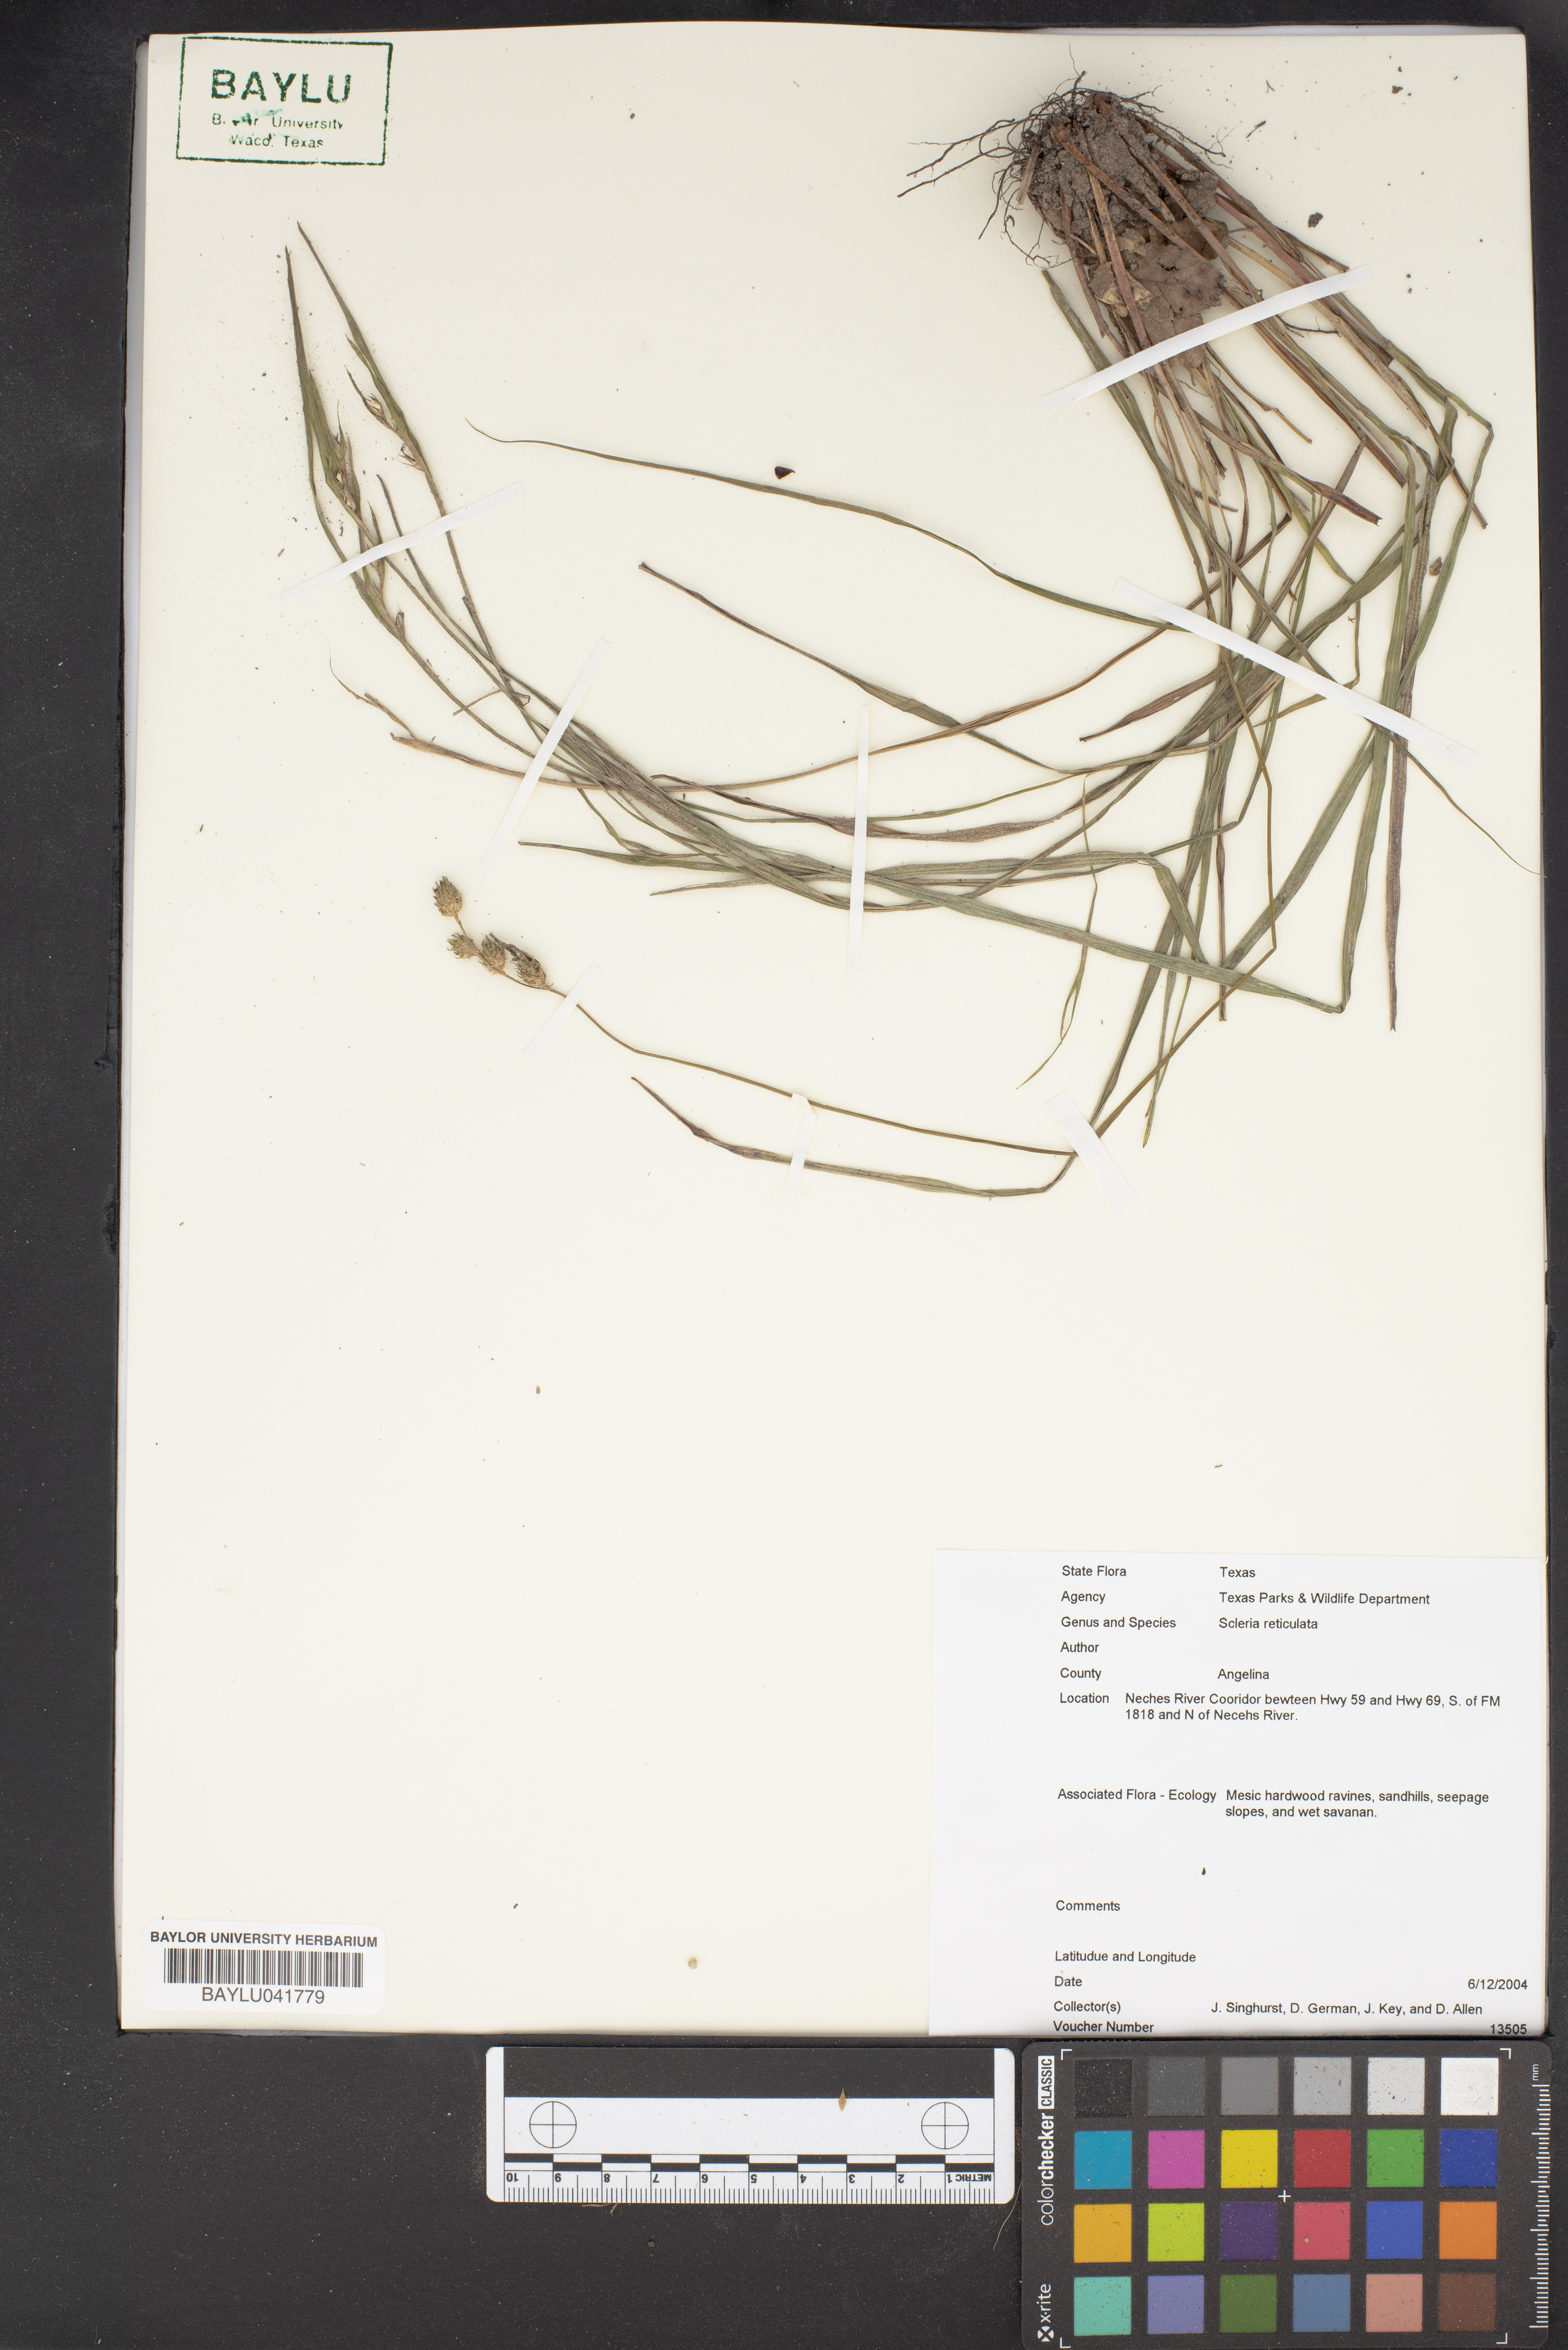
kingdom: Plantae
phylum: Tracheophyta
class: Liliopsida
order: Poales
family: Cyperaceae
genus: Diplacrum
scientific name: Diplacrum reticulatum
